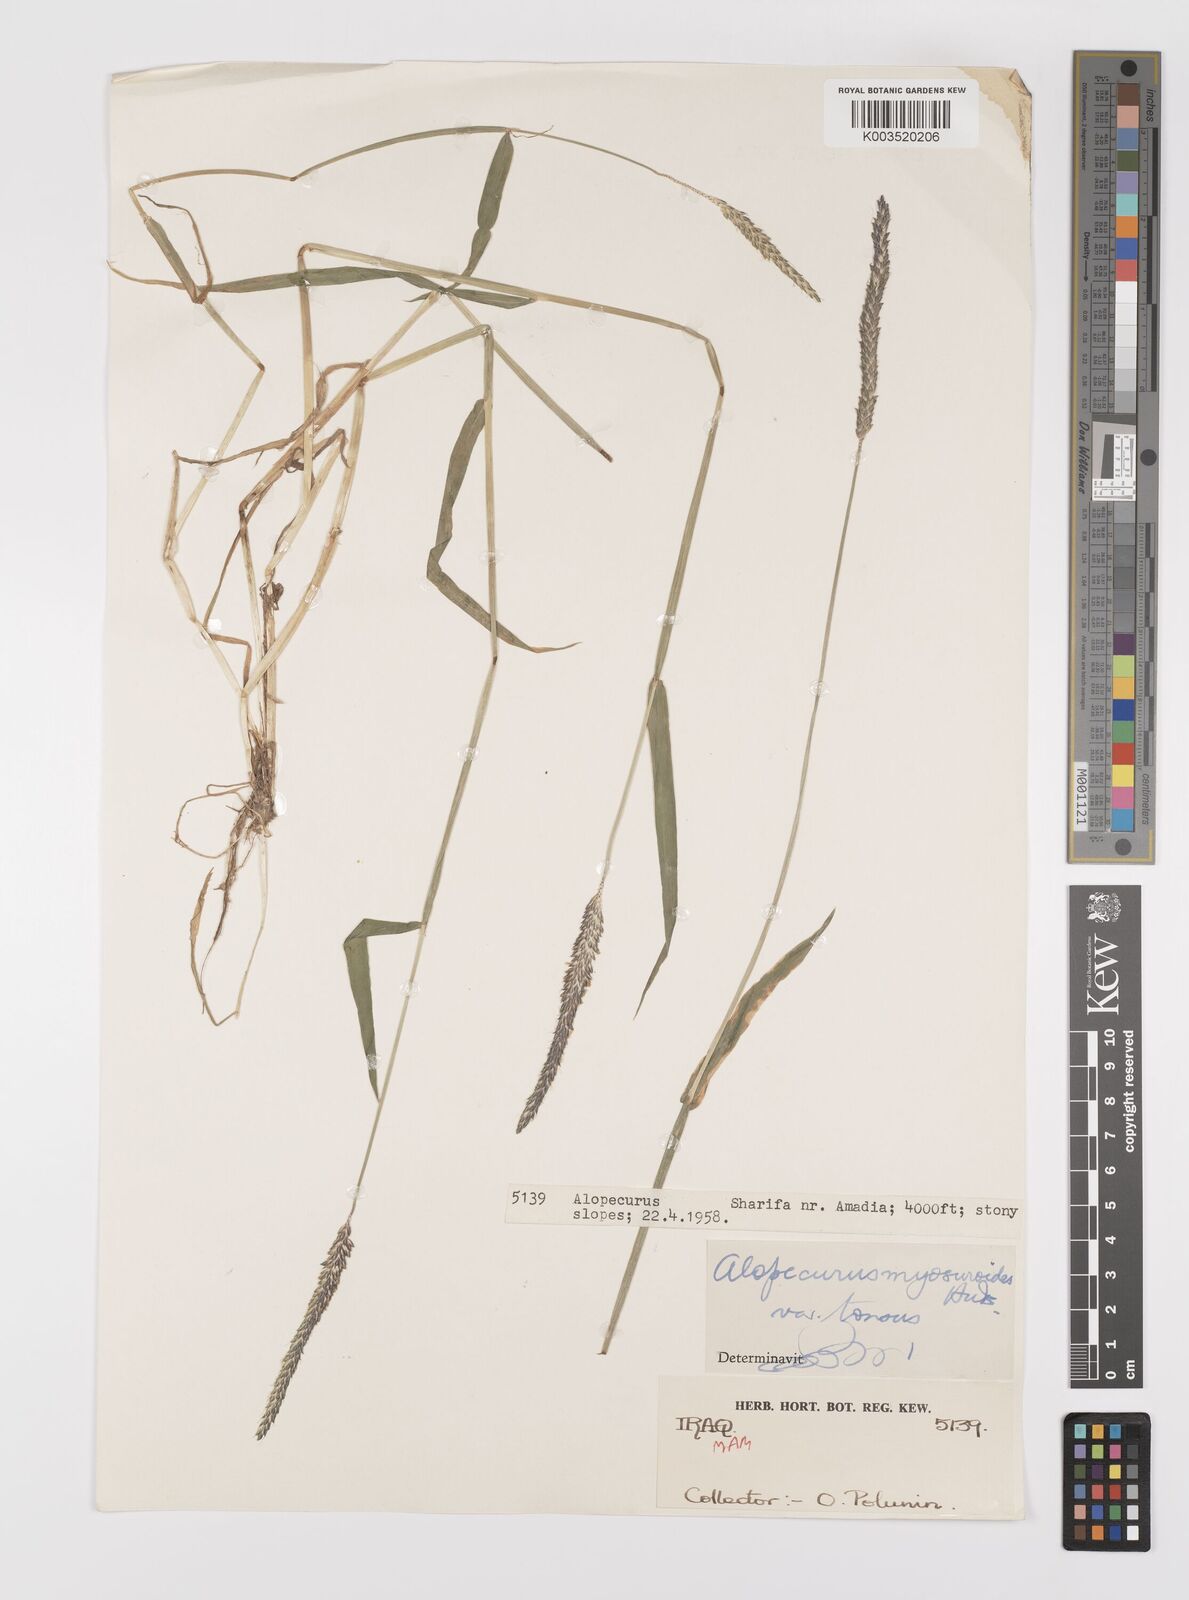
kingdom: Plantae
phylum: Tracheophyta
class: Liliopsida
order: Poales
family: Poaceae
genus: Alopecurus
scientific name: Alopecurus myosuroides
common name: Black-grass
